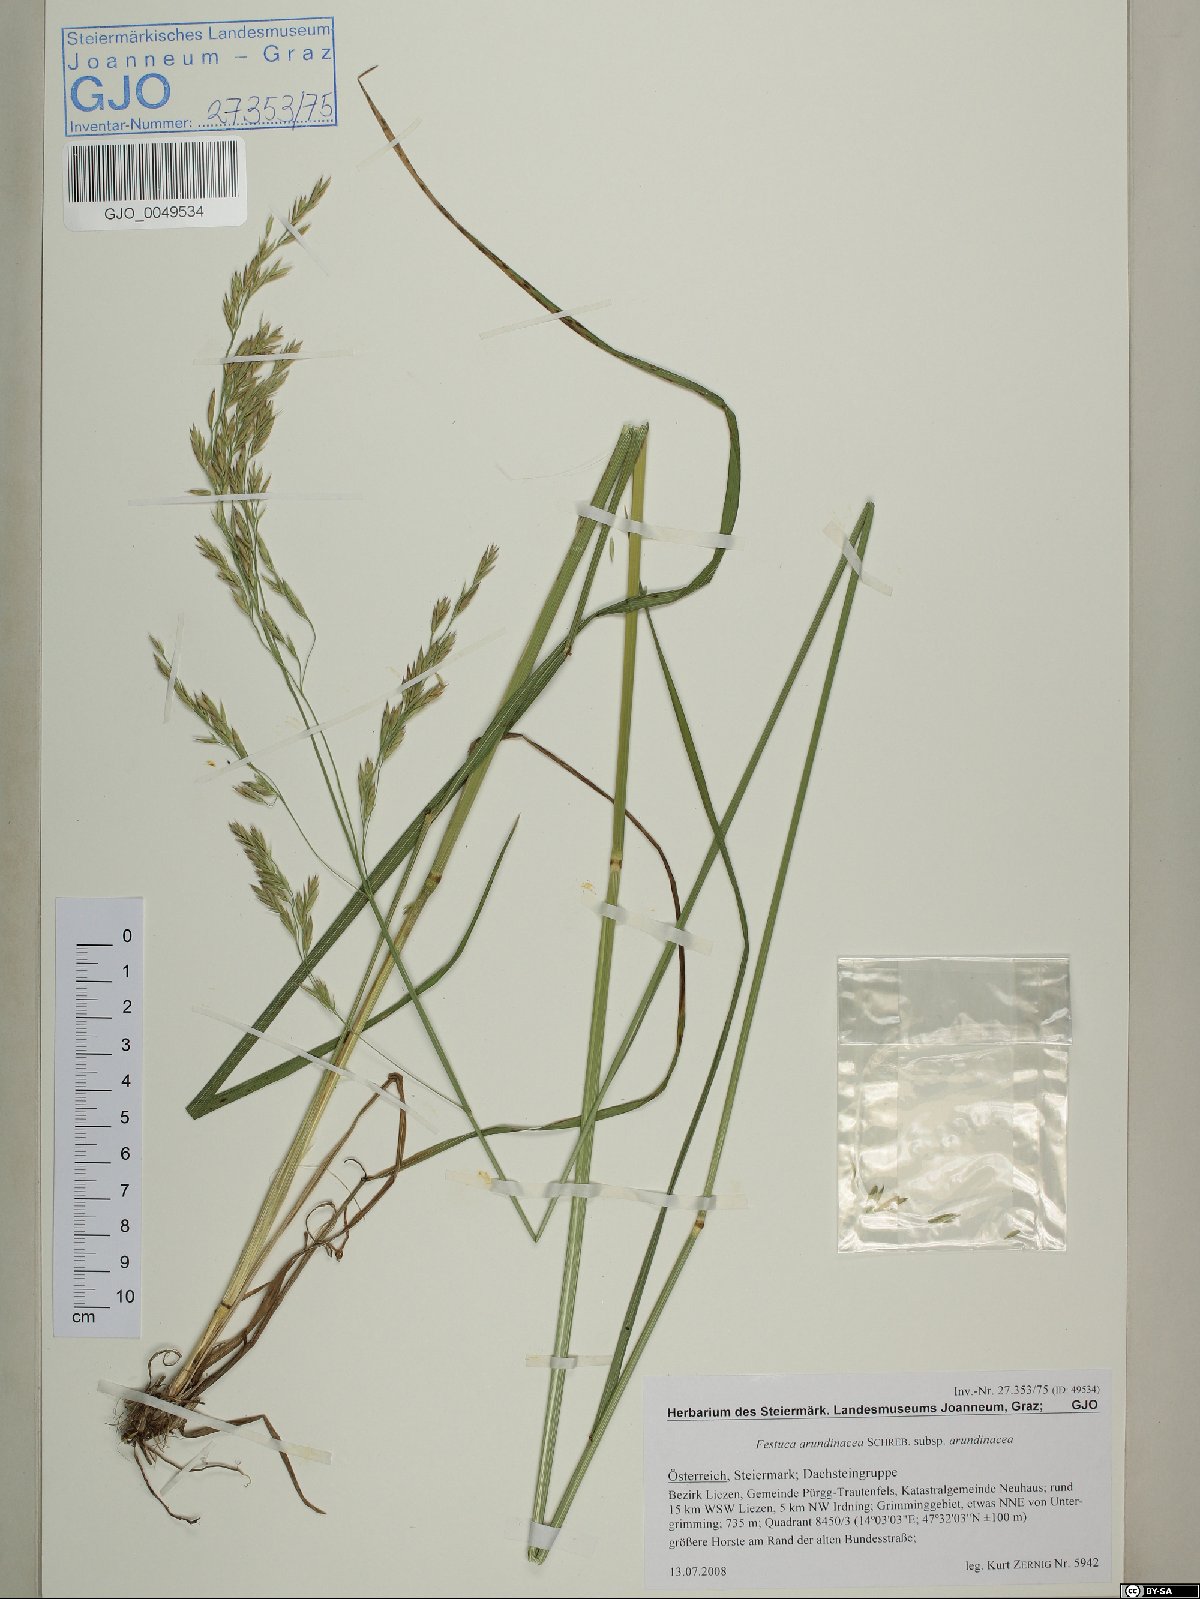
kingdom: Plantae
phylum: Tracheophyta
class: Liliopsida
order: Poales
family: Poaceae
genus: Lolium
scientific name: Lolium arundinaceum
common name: Reed fescue
